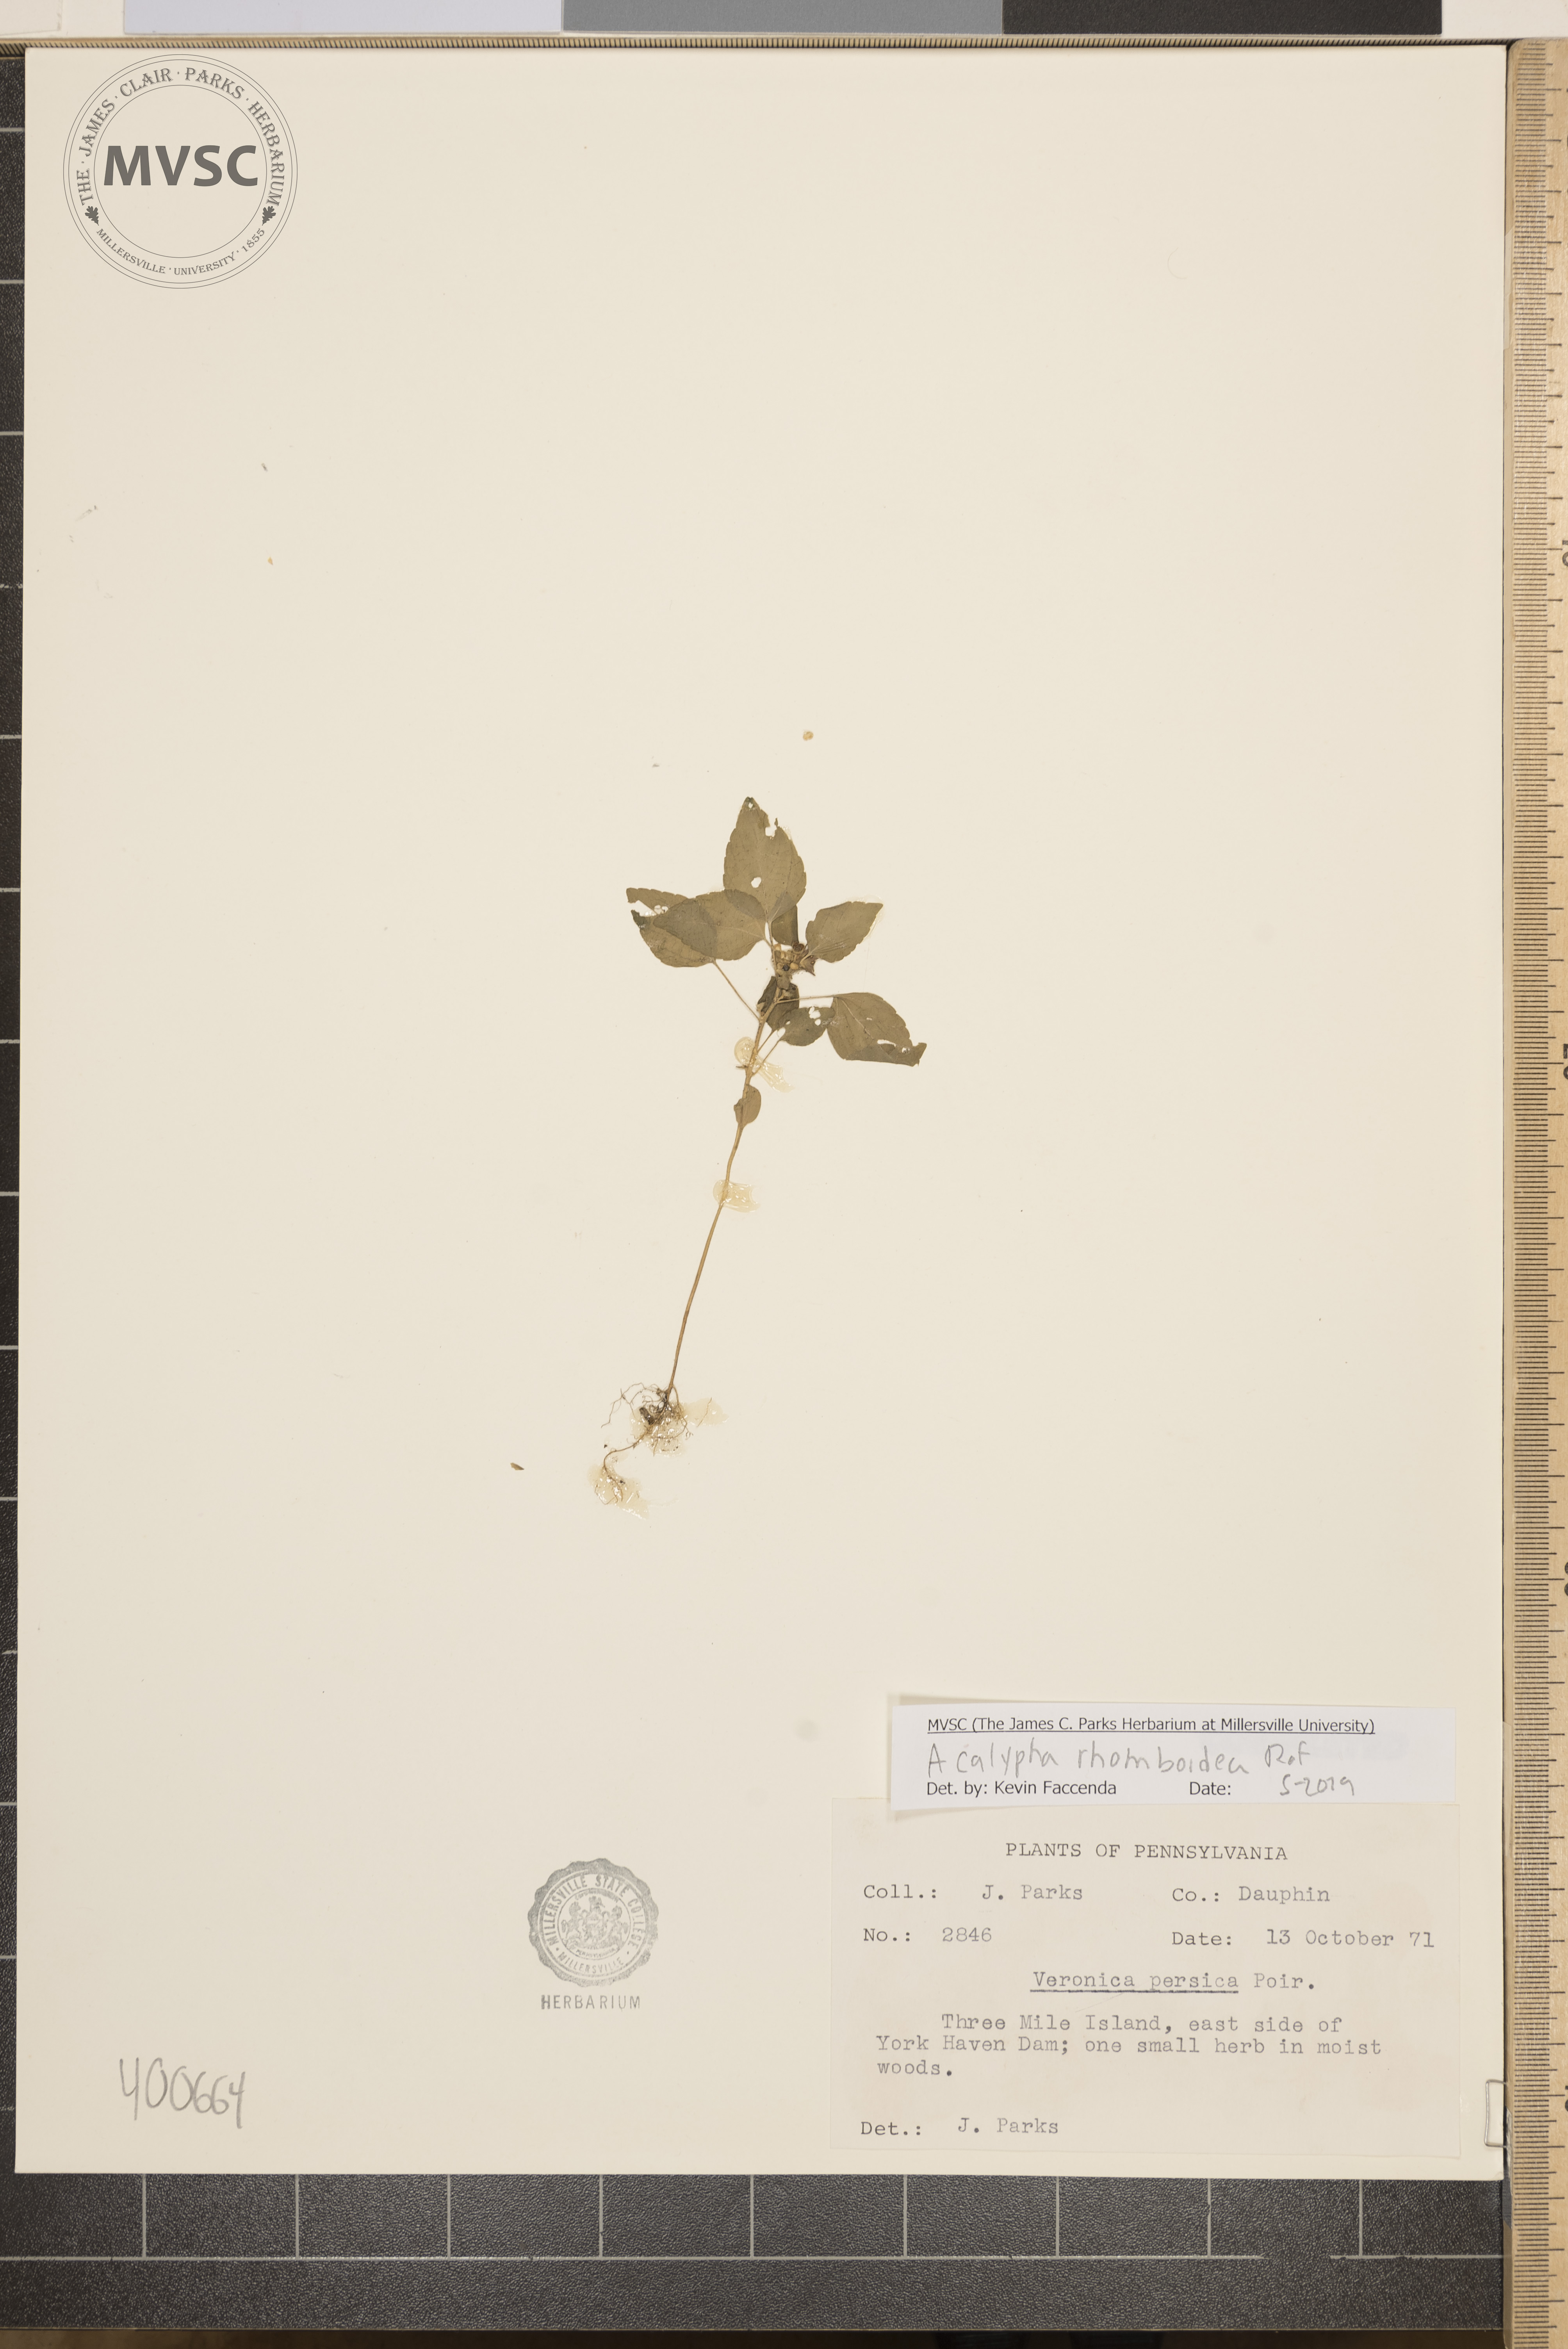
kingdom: Plantae
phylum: Tracheophyta
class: Magnoliopsida
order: Malpighiales
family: Euphorbiaceae
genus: Acalypha
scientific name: Acalypha rhomboidea
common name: three-seeded mercury
